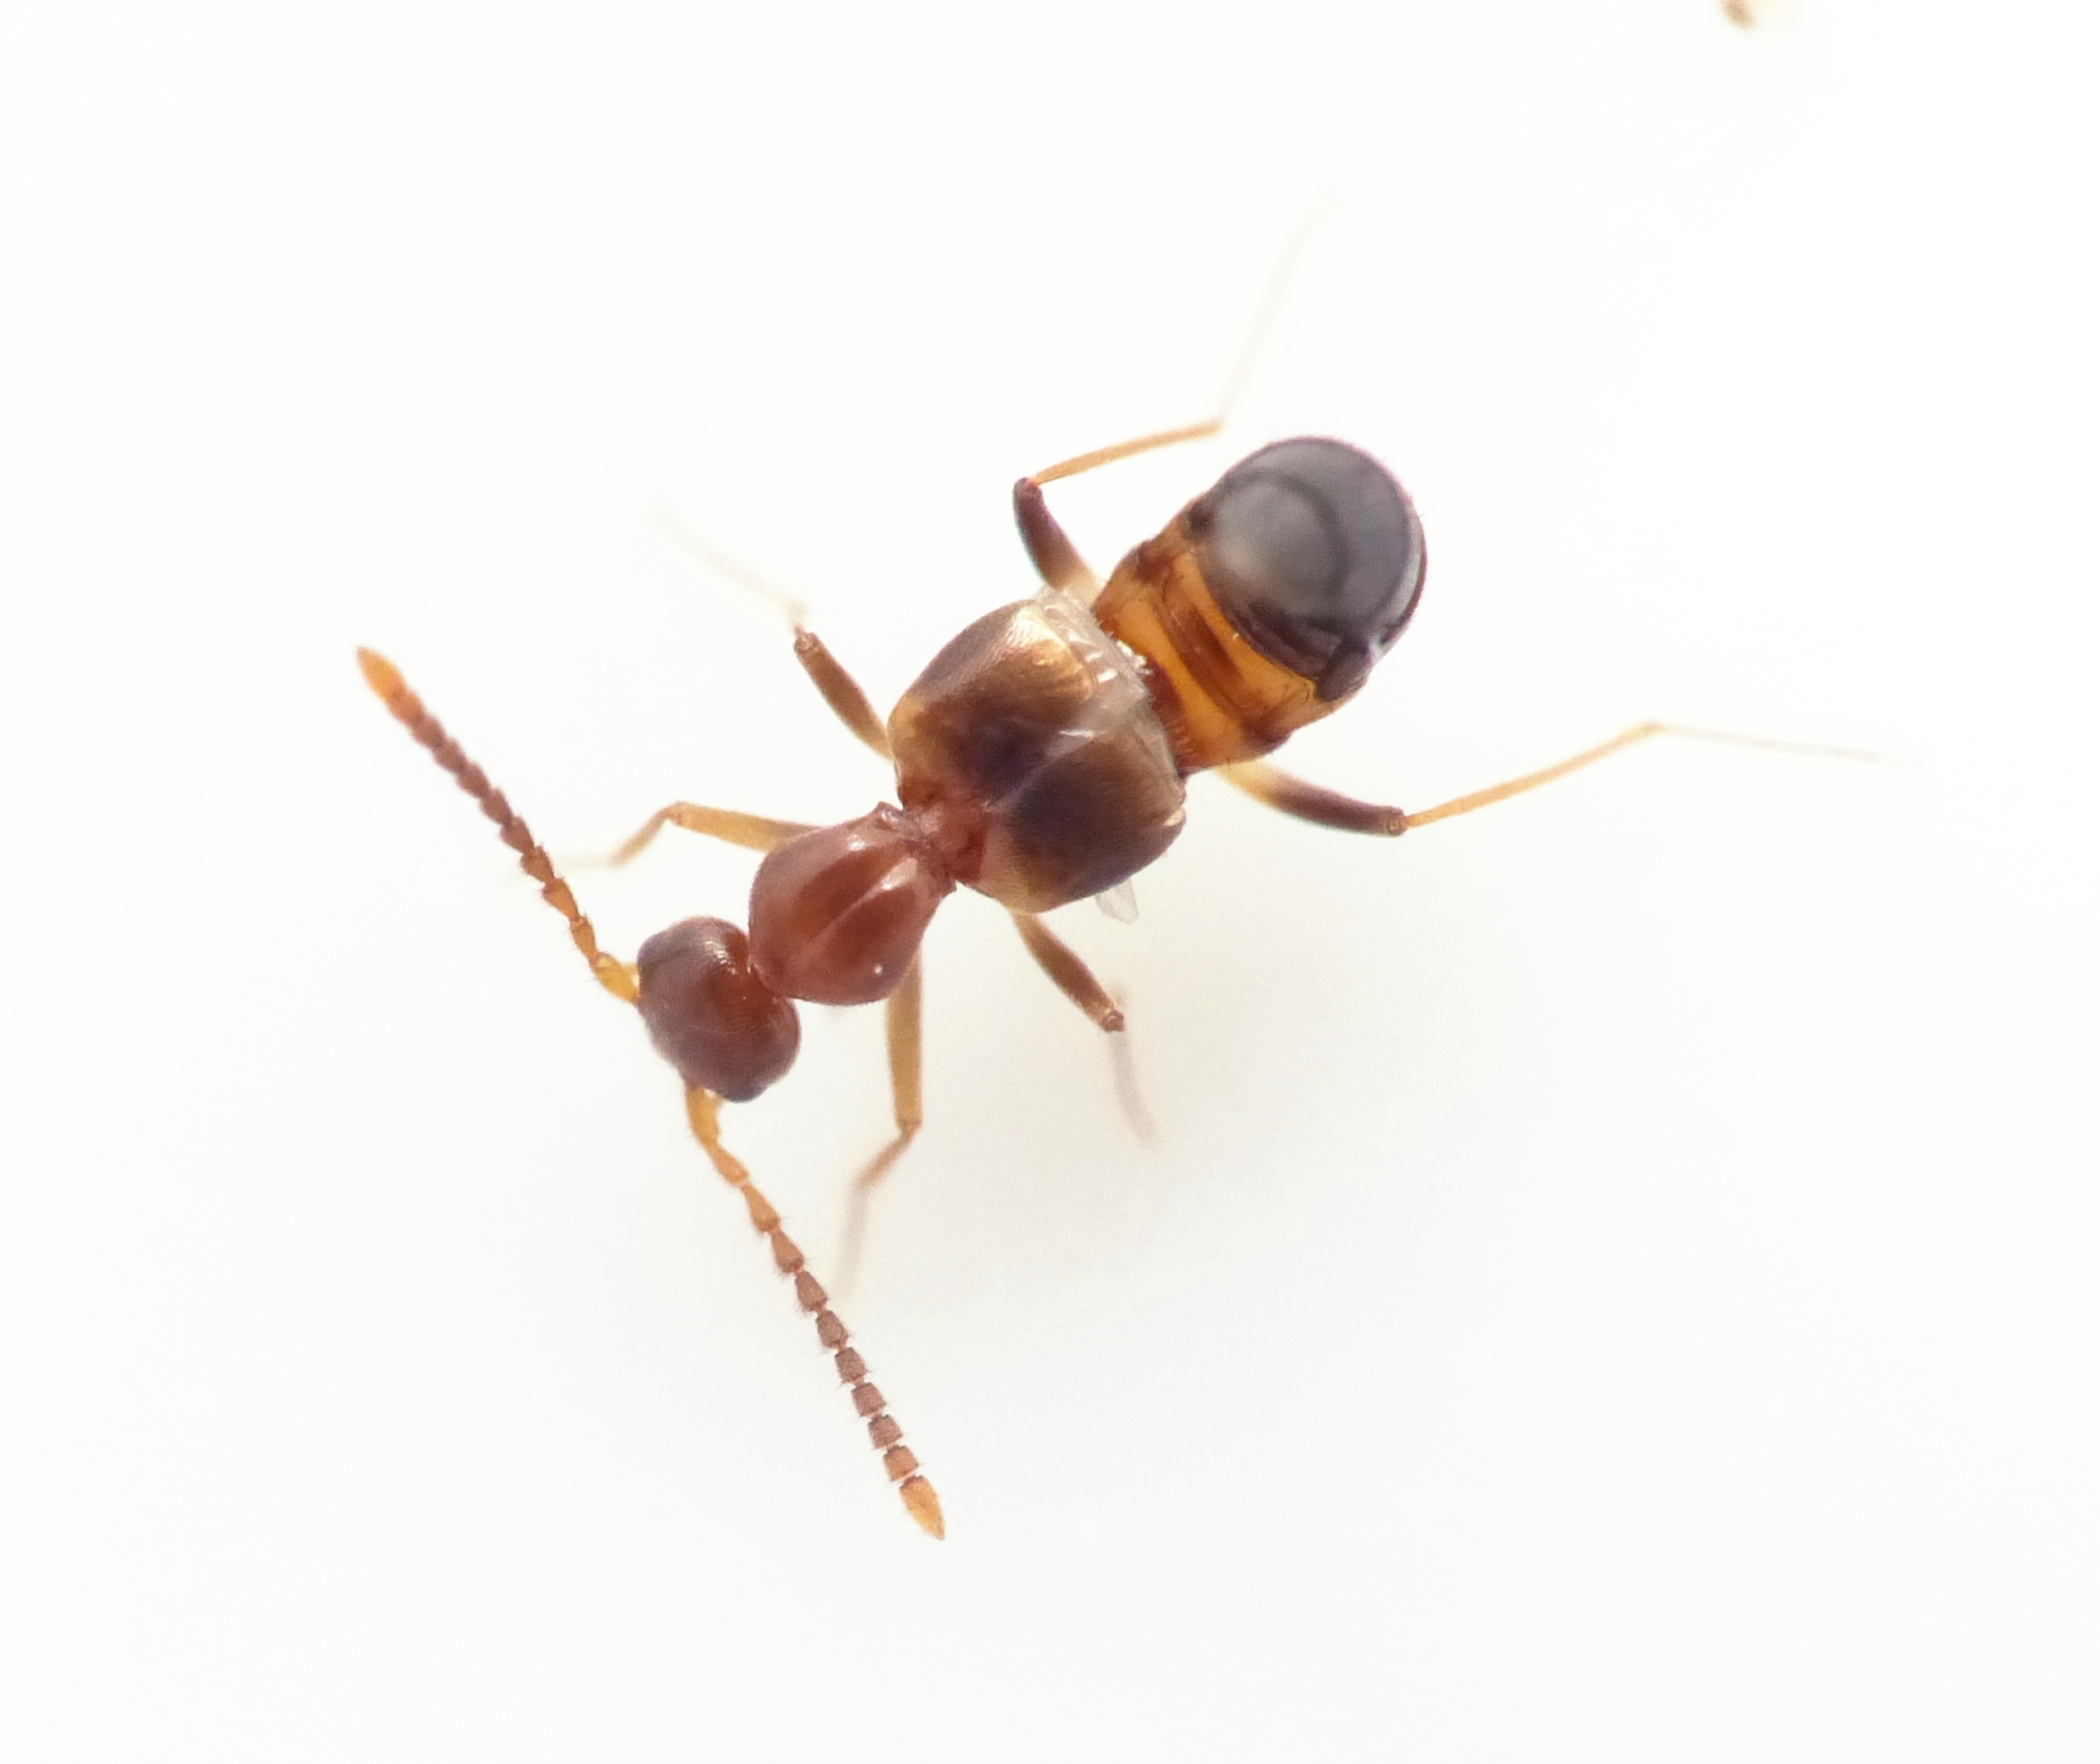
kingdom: Animalia
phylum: Arthropoda
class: Insecta
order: Coleoptera
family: Staphylinidae
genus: Myrmecocephalus
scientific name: Myrmecocephalus concinnus
